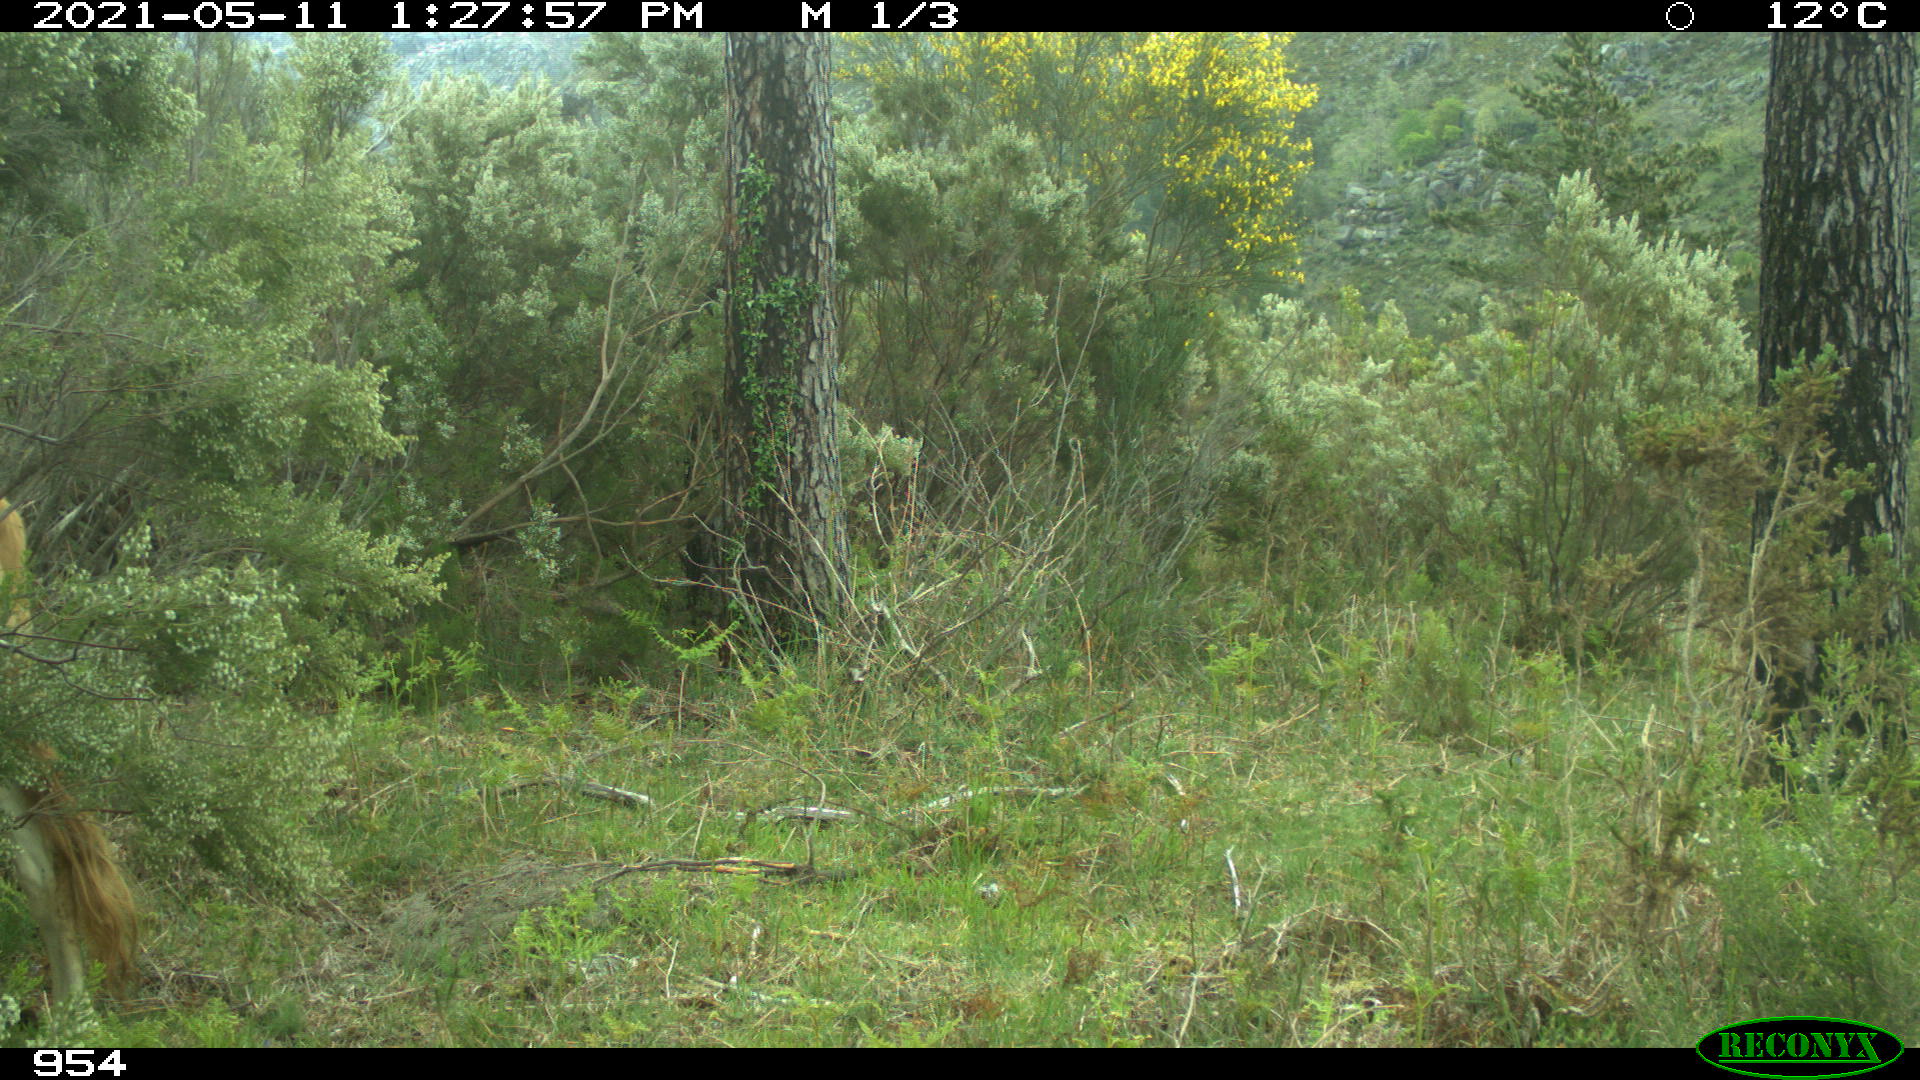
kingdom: Animalia
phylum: Chordata
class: Mammalia
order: Artiodactyla
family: Bovidae
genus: Bos
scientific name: Bos taurus
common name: Domesticated cattle
